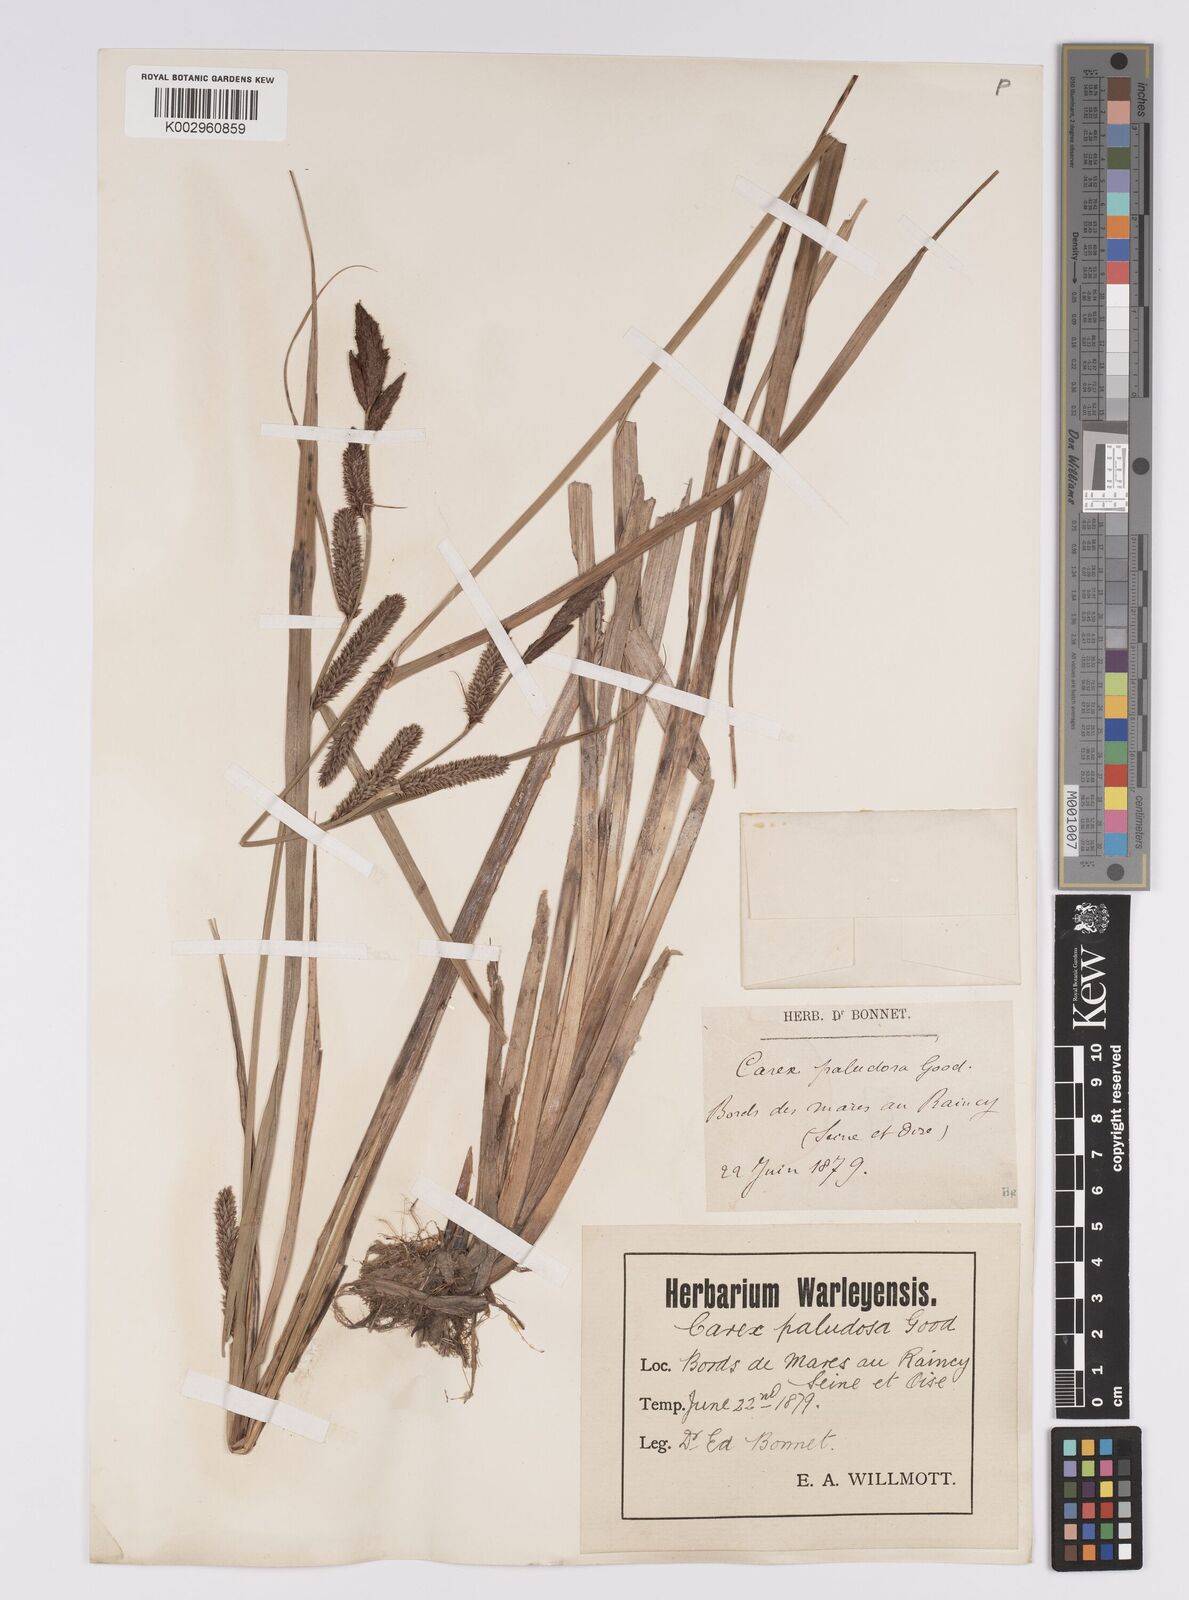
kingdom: Plantae
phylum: Tracheophyta
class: Liliopsida
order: Poales
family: Cyperaceae
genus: Carex
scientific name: Carex acutiformis
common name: Lesser pond-sedge
